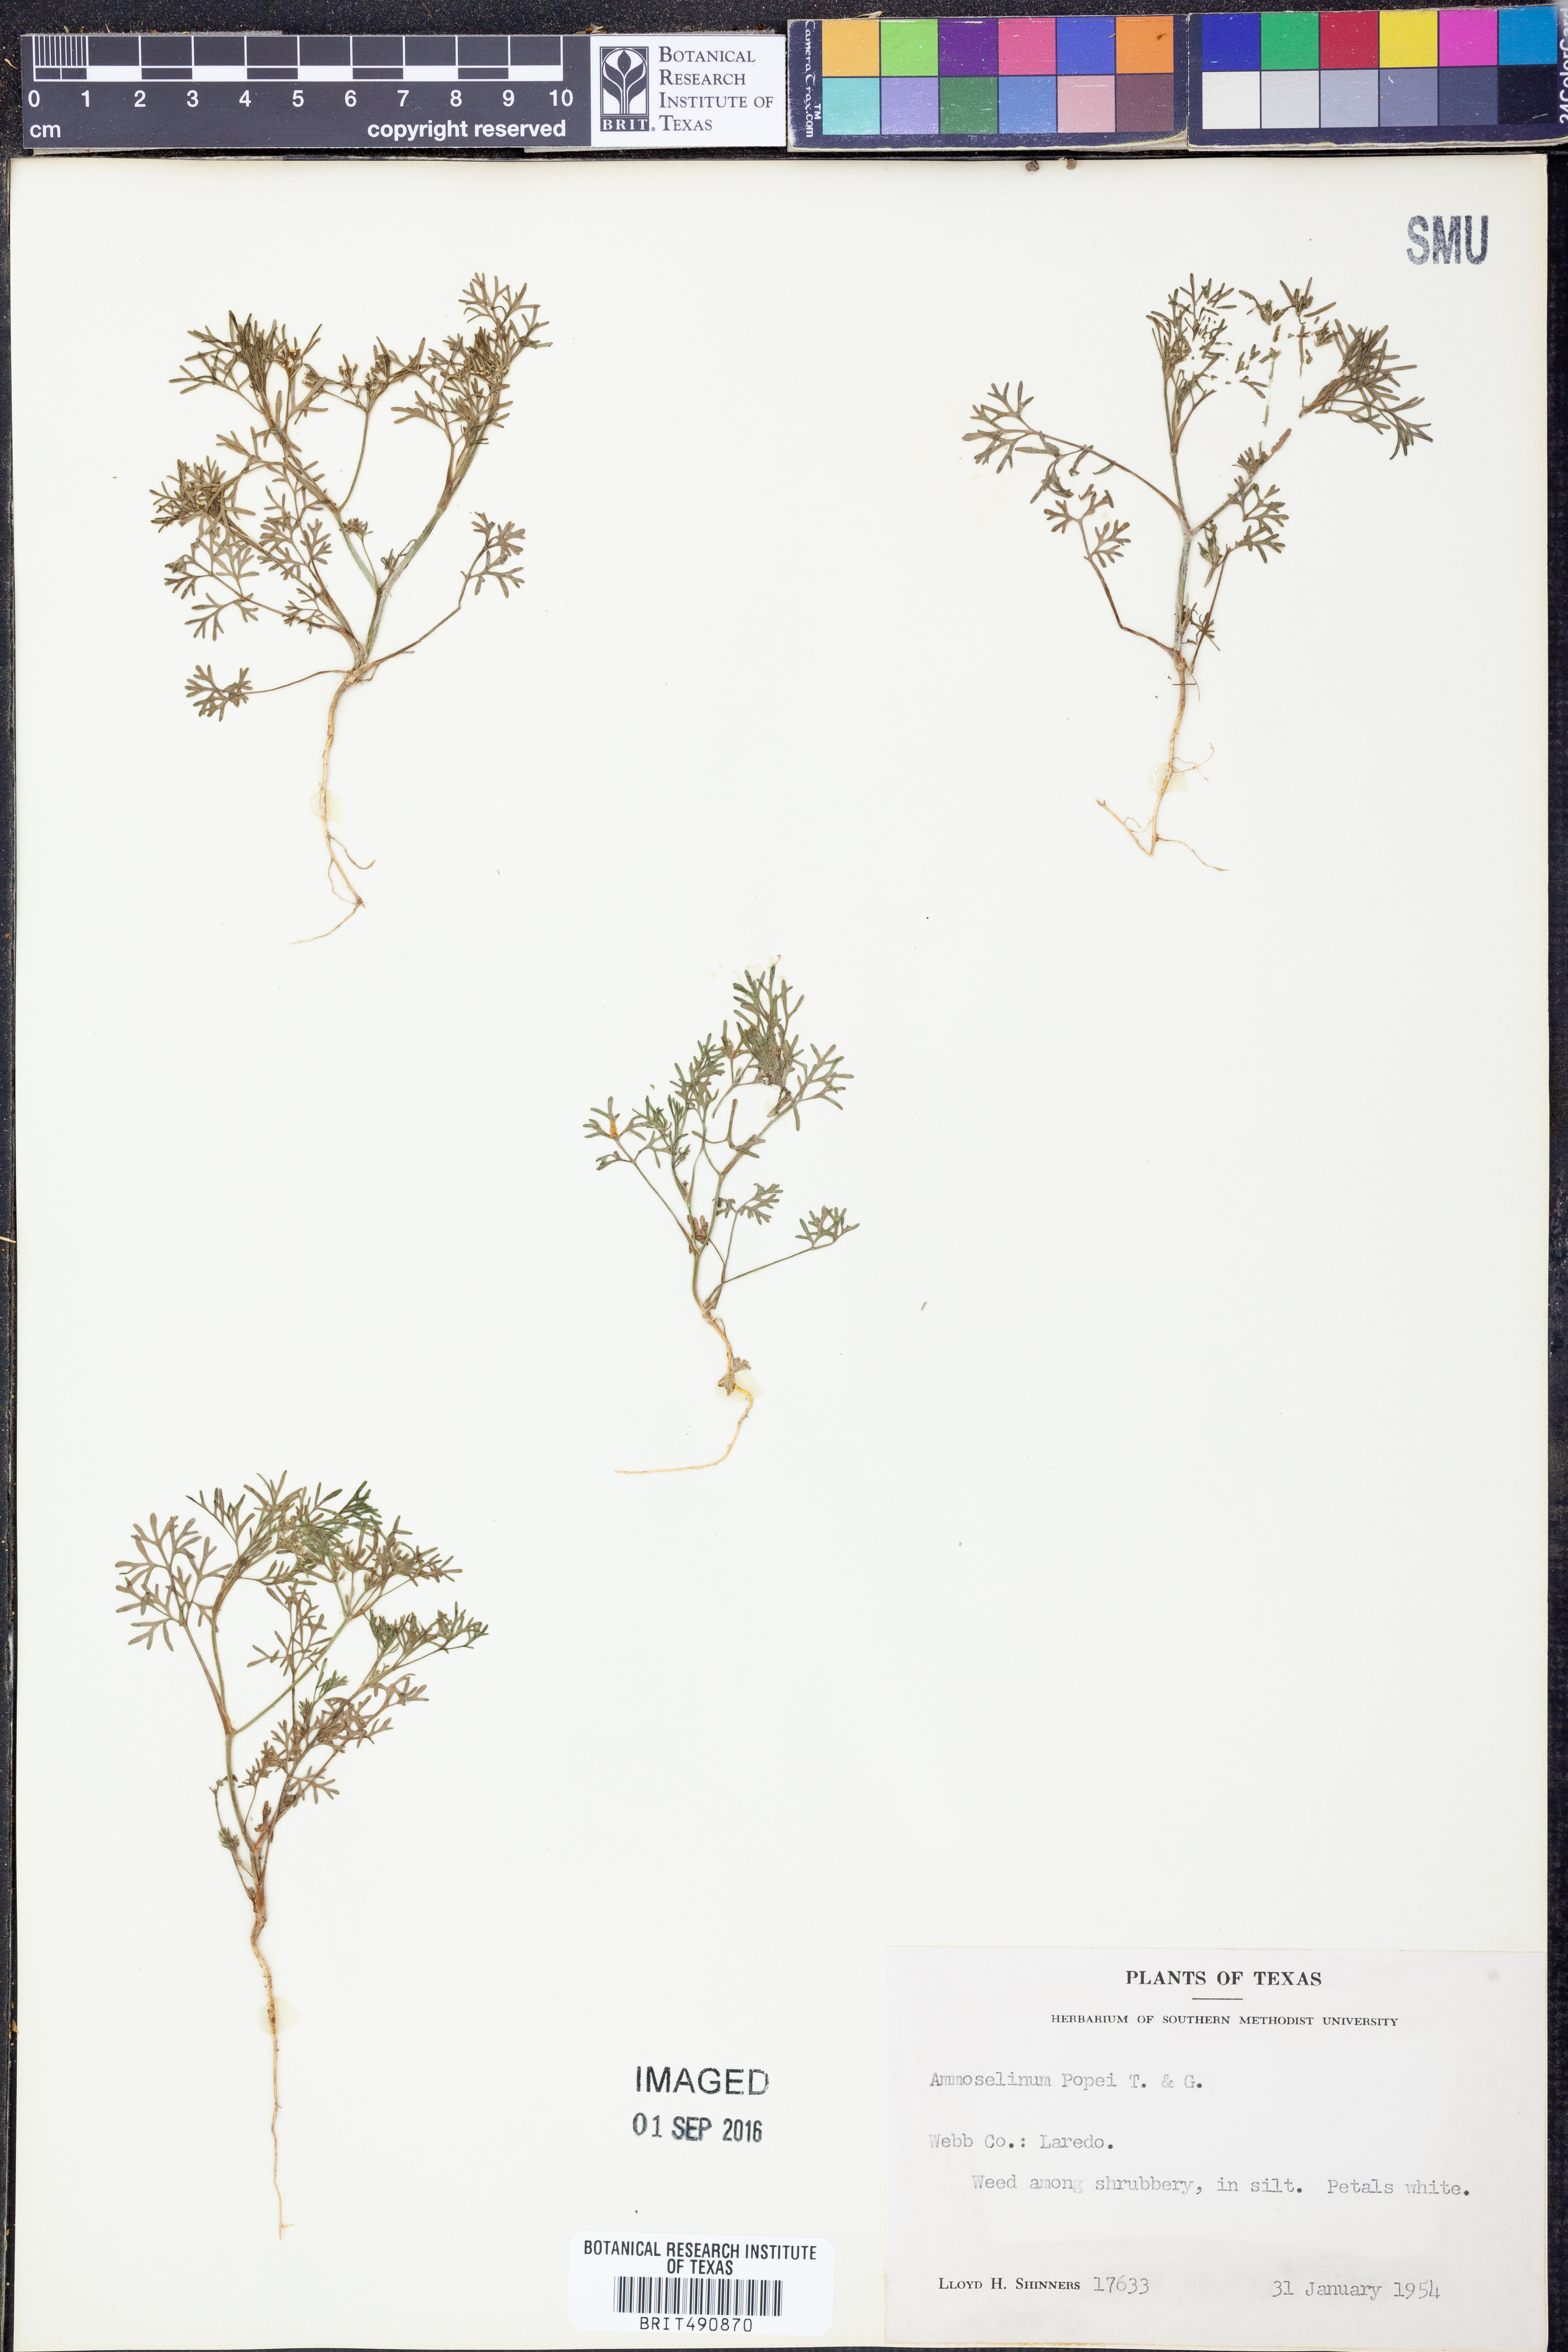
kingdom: Plantae
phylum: Tracheophyta
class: Magnoliopsida
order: Apiales
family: Apiaceae
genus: Ammoselinum
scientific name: Ammoselinum popei
